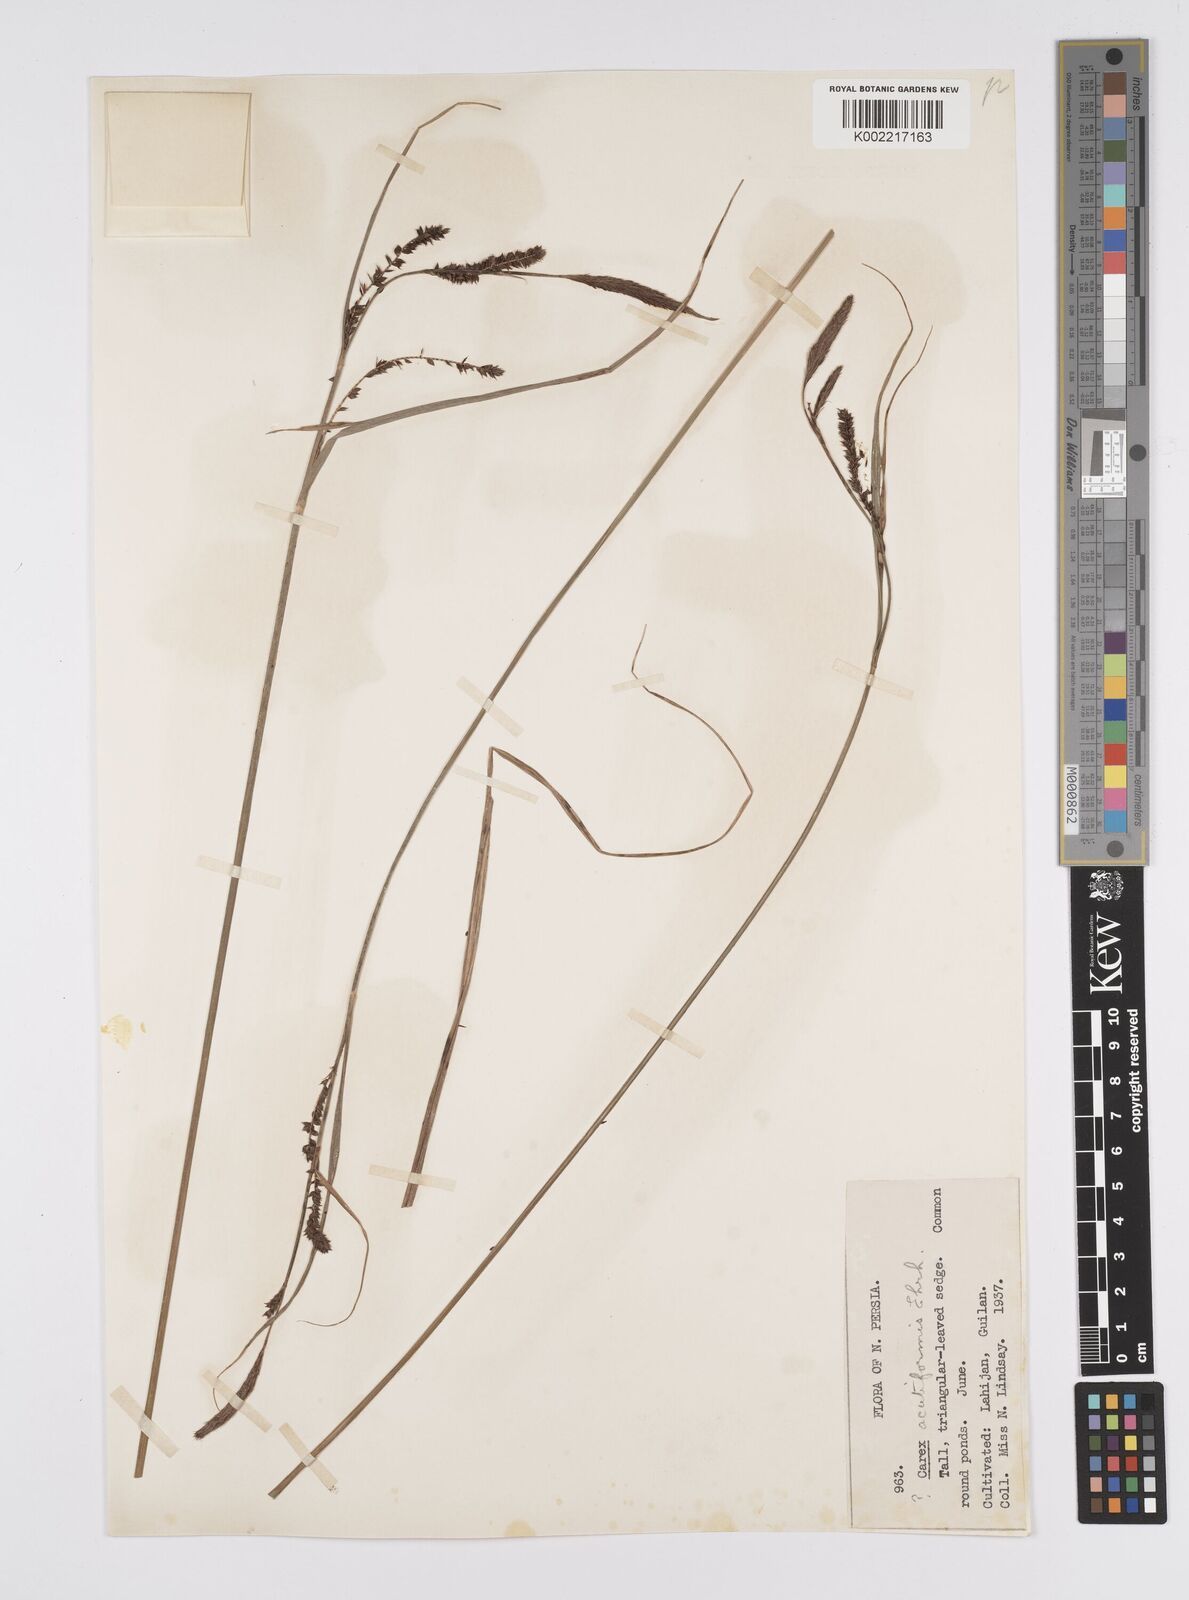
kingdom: Plantae
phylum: Tracheophyta
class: Liliopsida
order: Poales
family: Cyperaceae
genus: Carex
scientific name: Carex acutiformis
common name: Lesser pond-sedge
